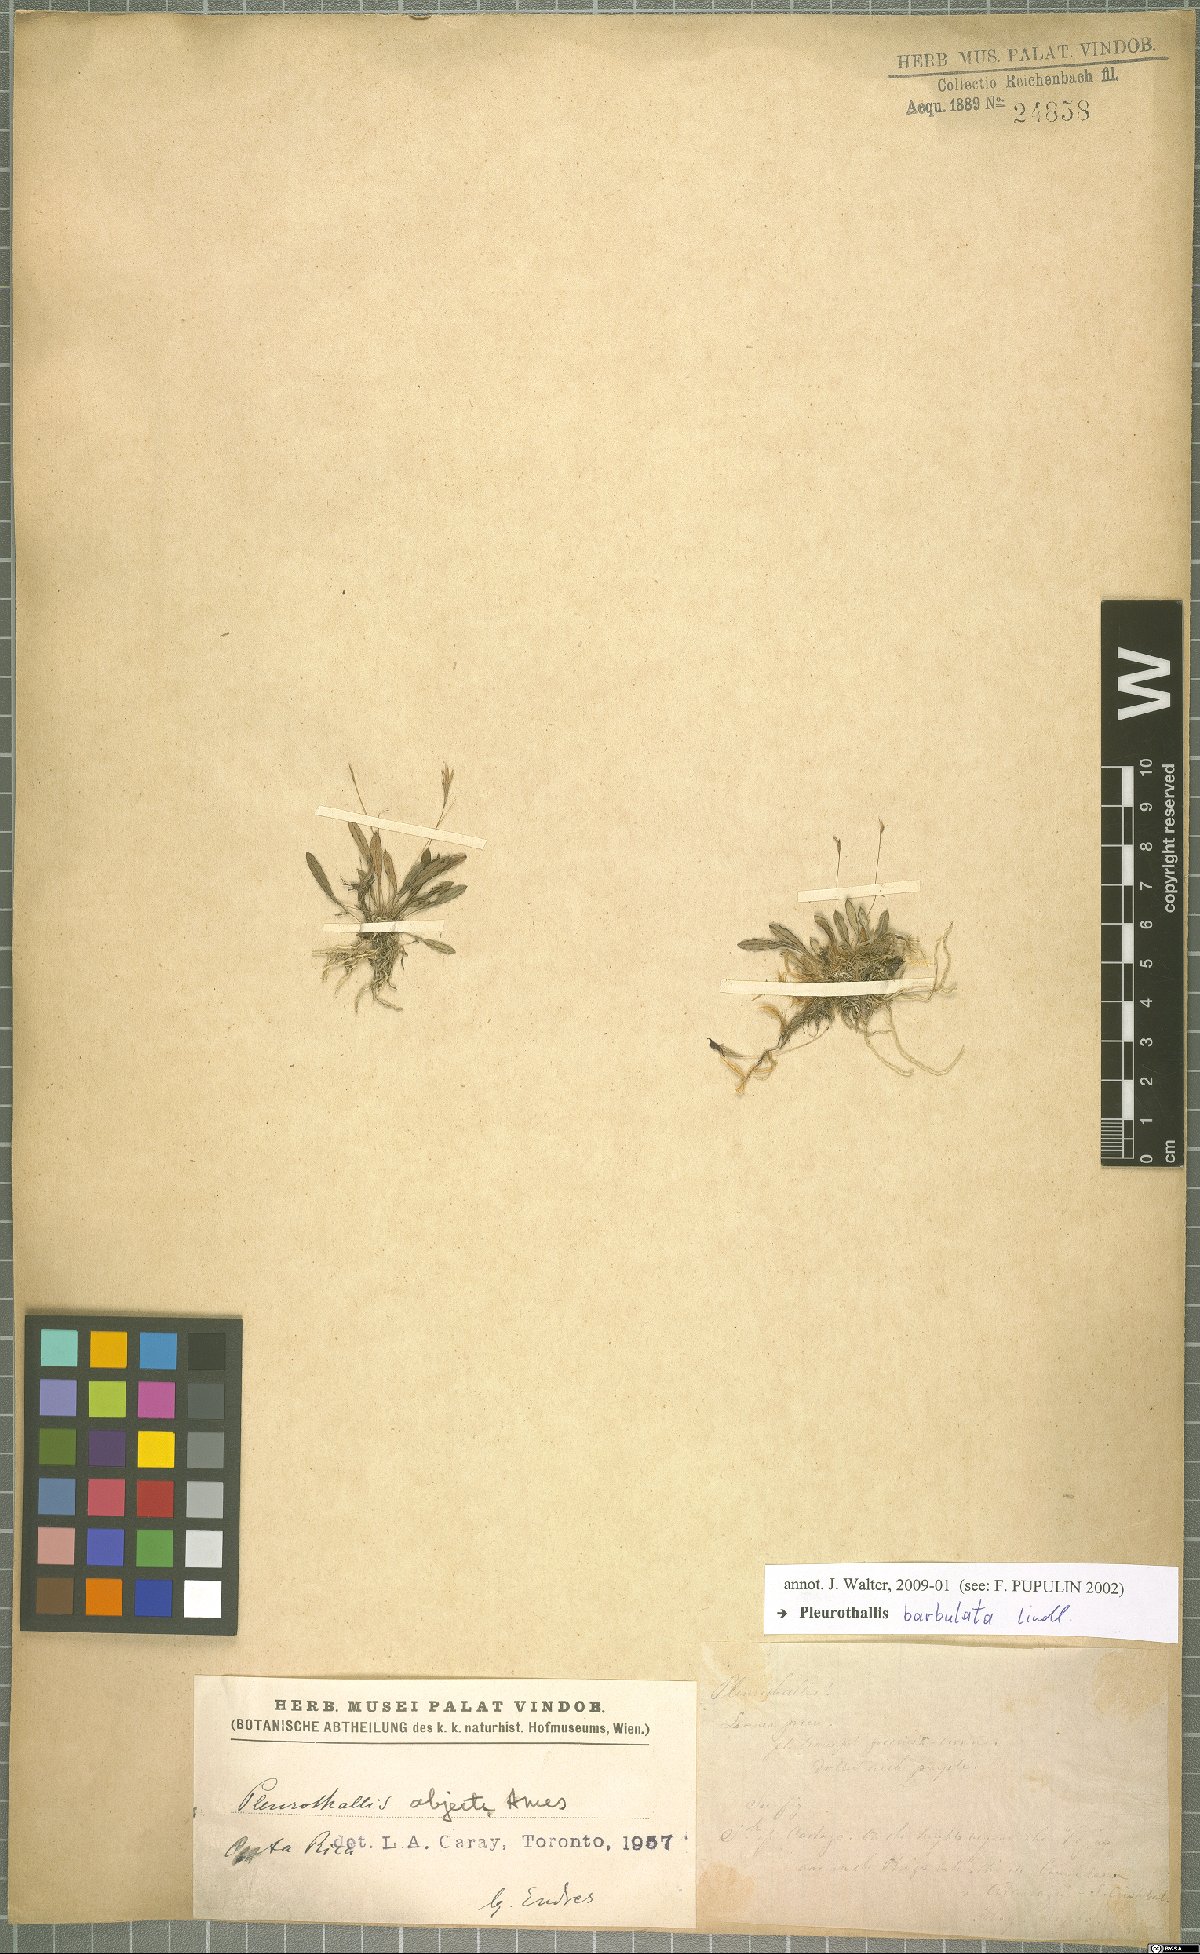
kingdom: Plantae
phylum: Tracheophyta
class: Liliopsida
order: Asparagales
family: Orchidaceae
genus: Anathallis
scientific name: Anathallis barbulata
